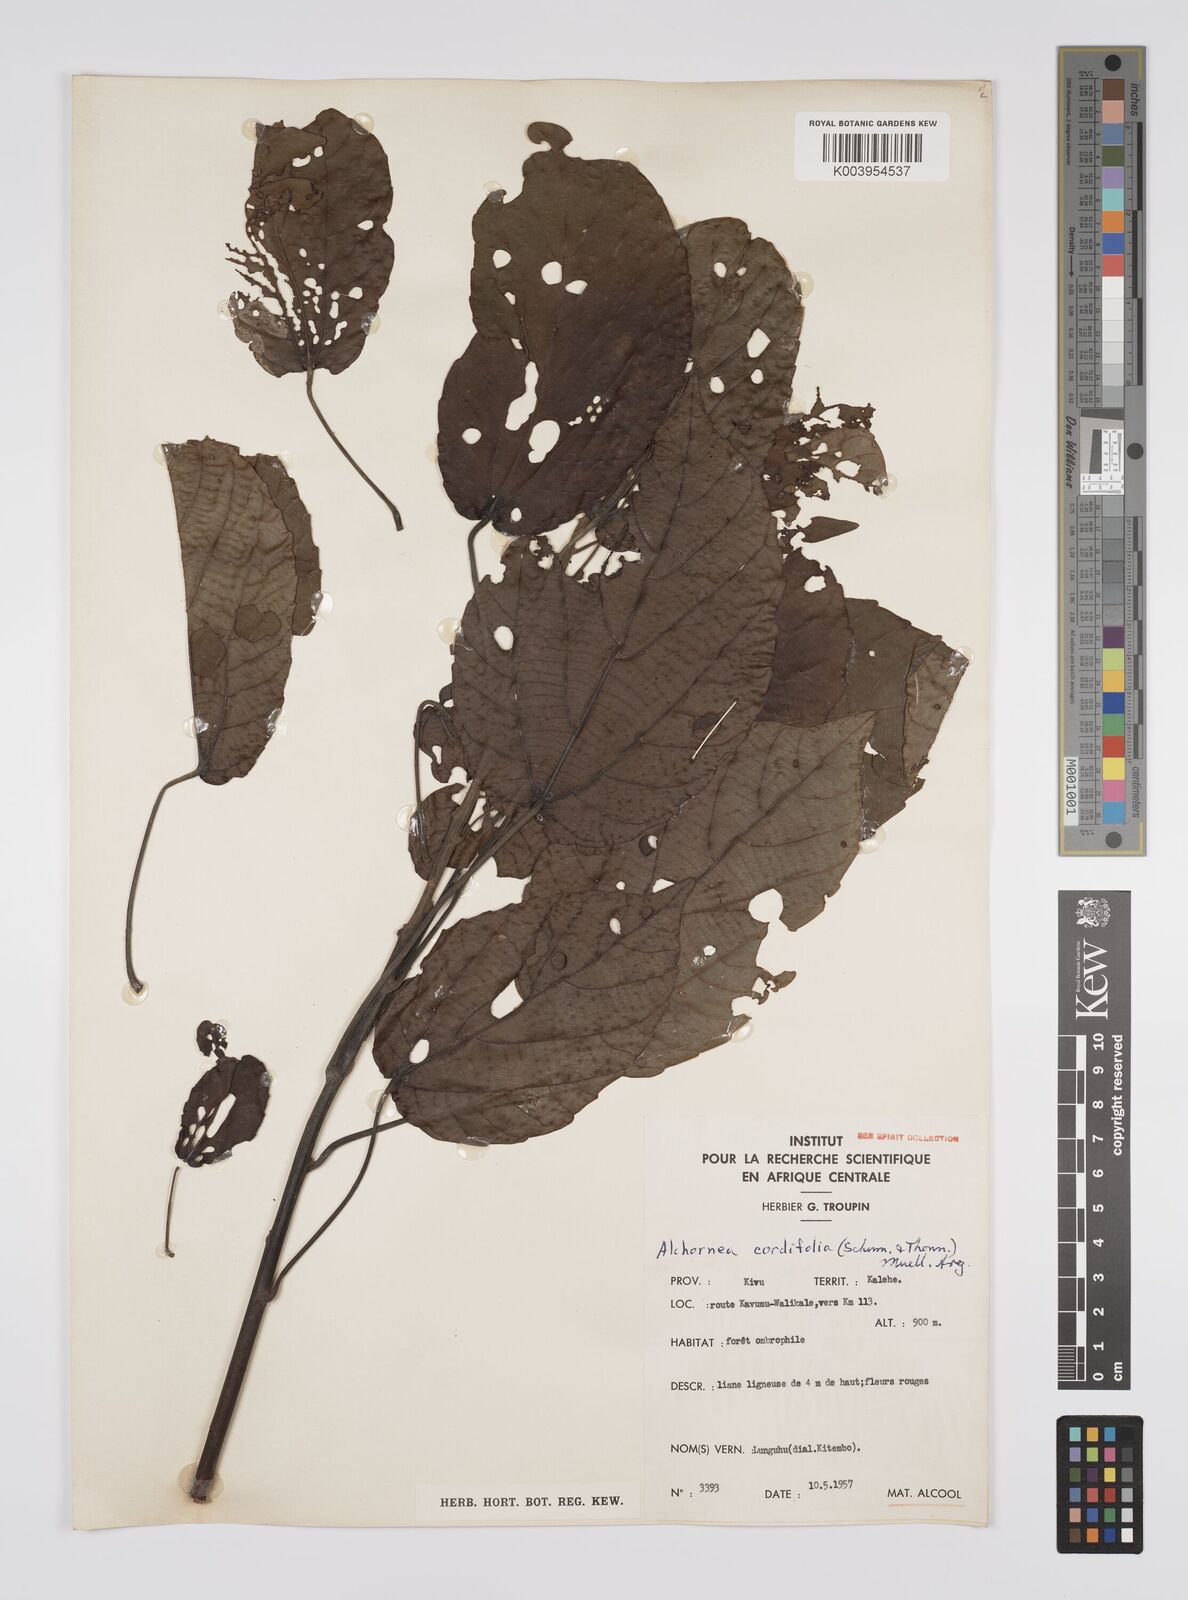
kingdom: Plantae
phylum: Tracheophyta
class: Magnoliopsida
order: Malpighiales
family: Euphorbiaceae
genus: Alchornea
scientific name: Alchornea cordifolia
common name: Christmasbush
